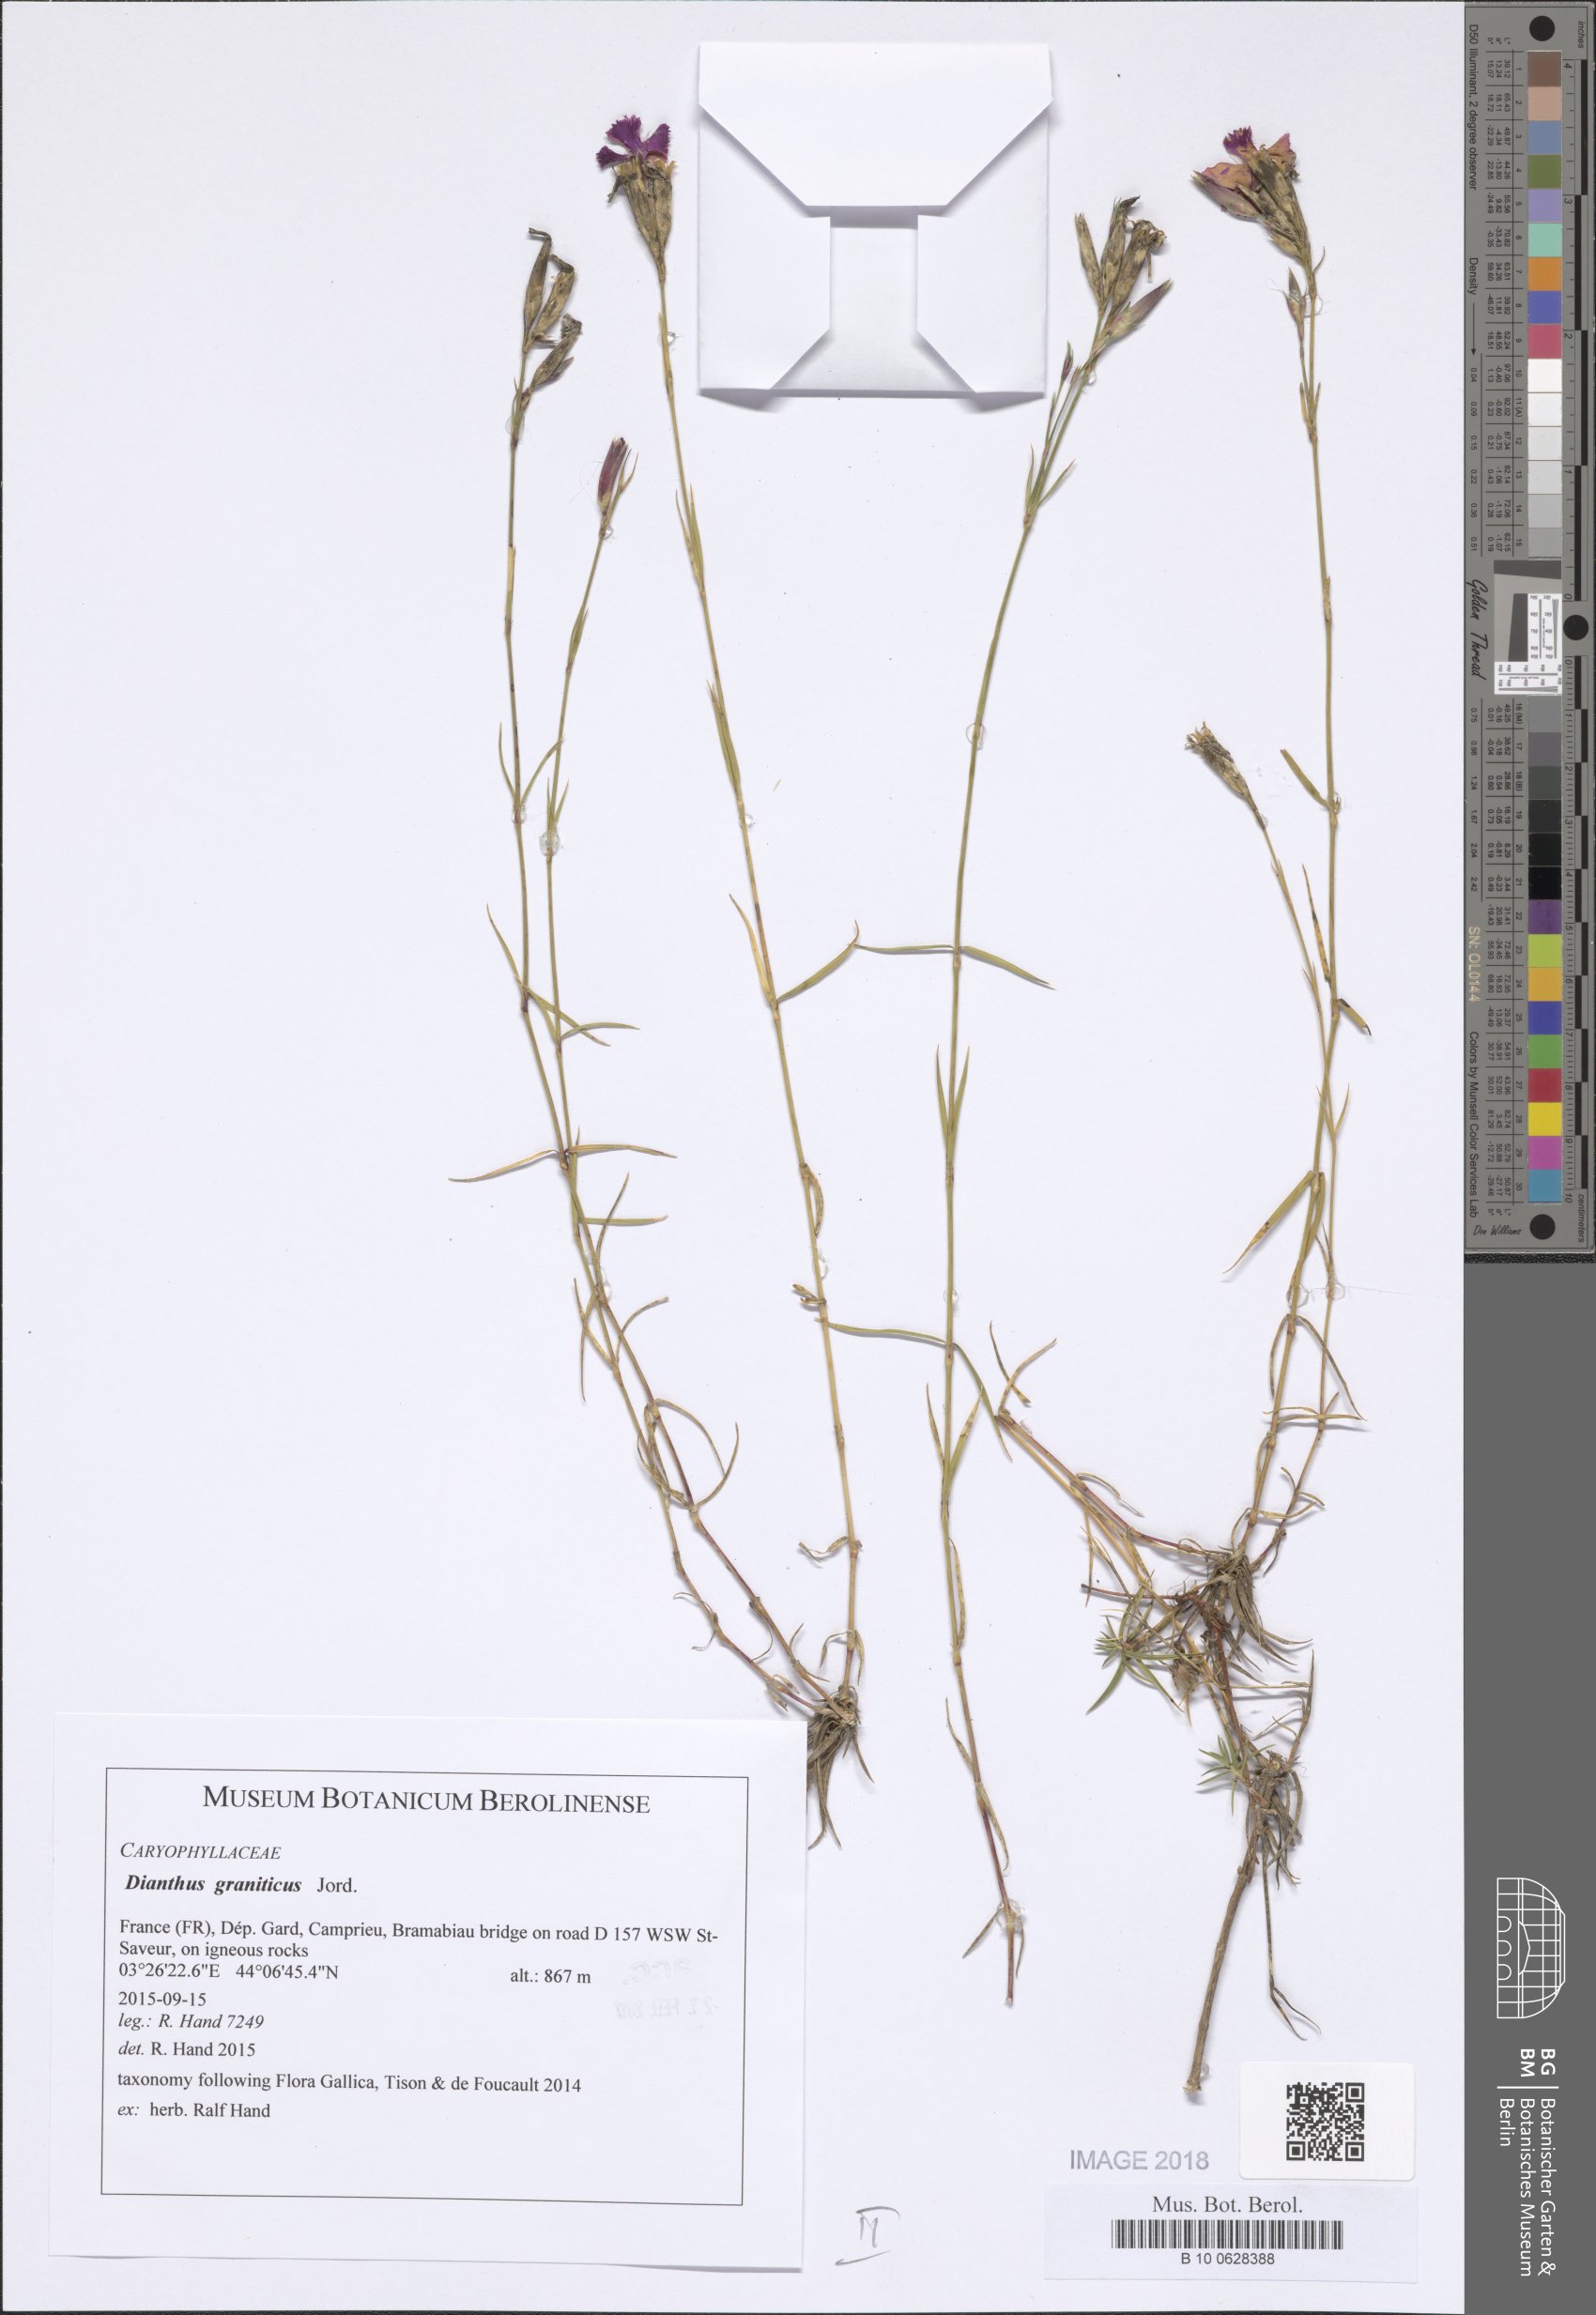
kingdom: Plantae
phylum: Tracheophyta
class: Magnoliopsida
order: Caryophyllales
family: Caryophyllaceae
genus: Dianthus
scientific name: Dianthus graniticus
